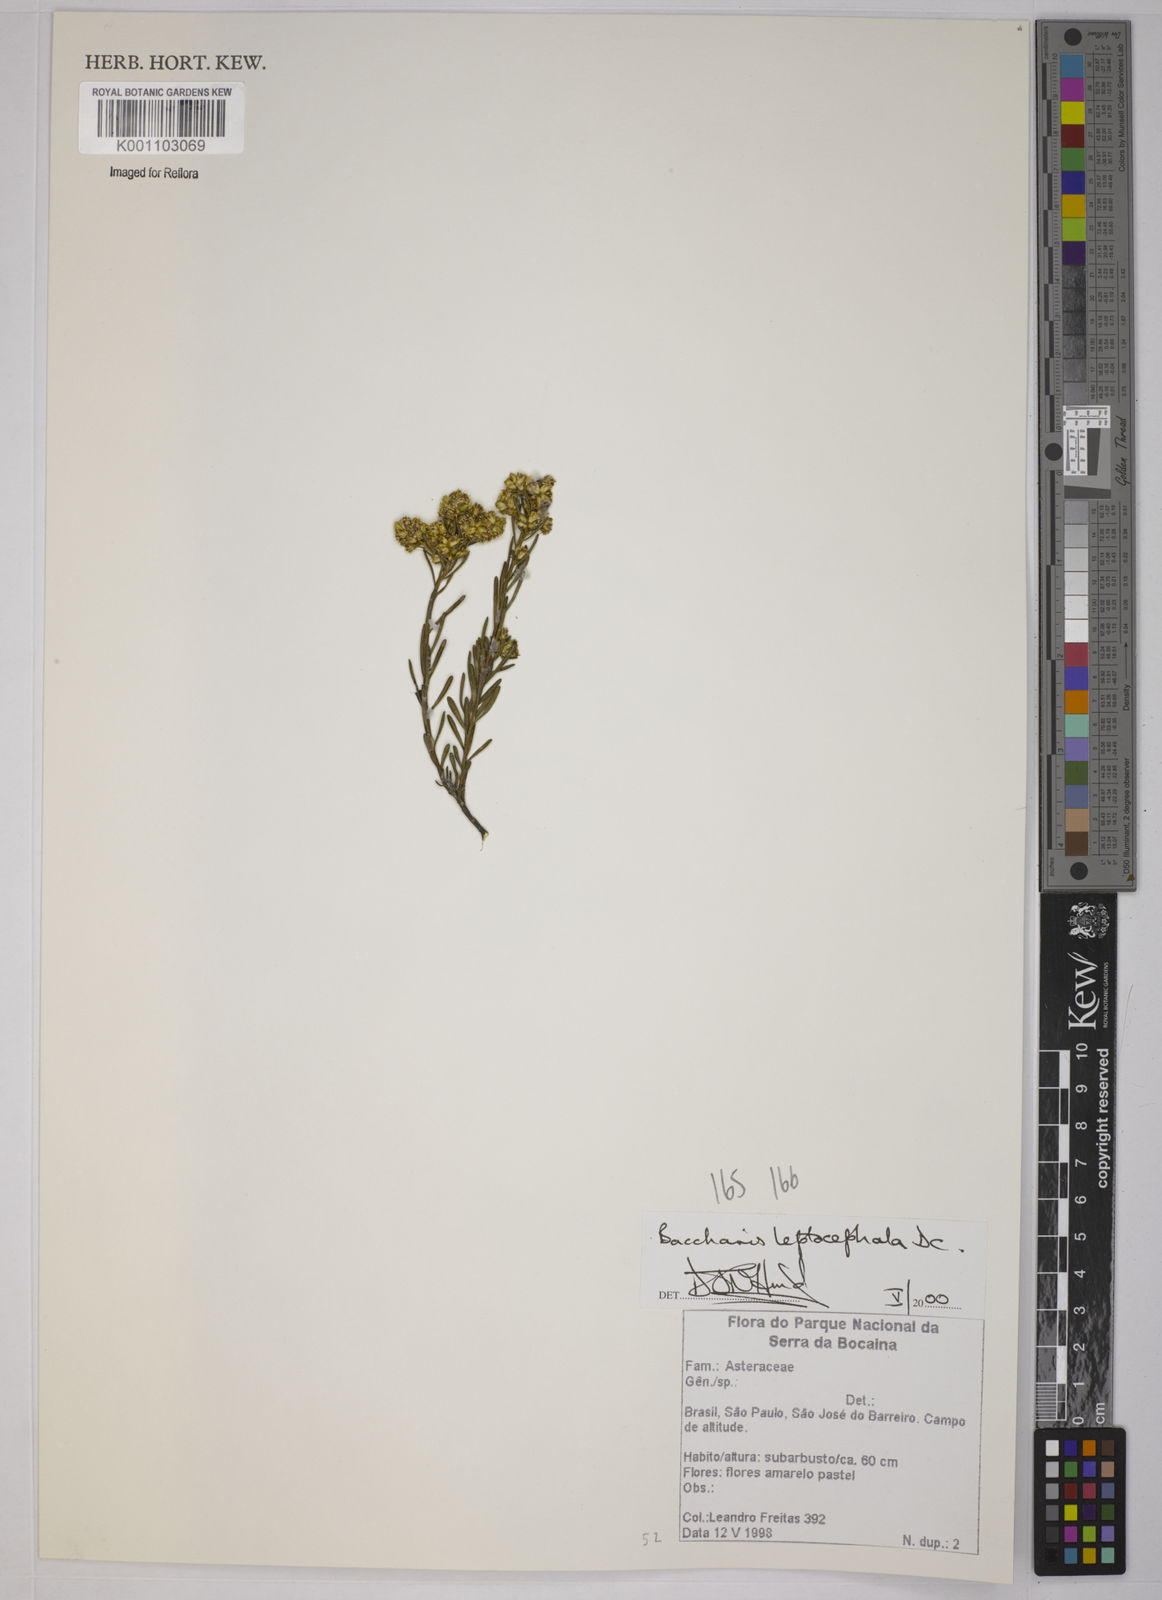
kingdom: Plantae
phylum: Tracheophyta
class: Magnoliopsida
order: Asterales
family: Asteraceae
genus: Baccharis
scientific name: Baccharis leptocephala
